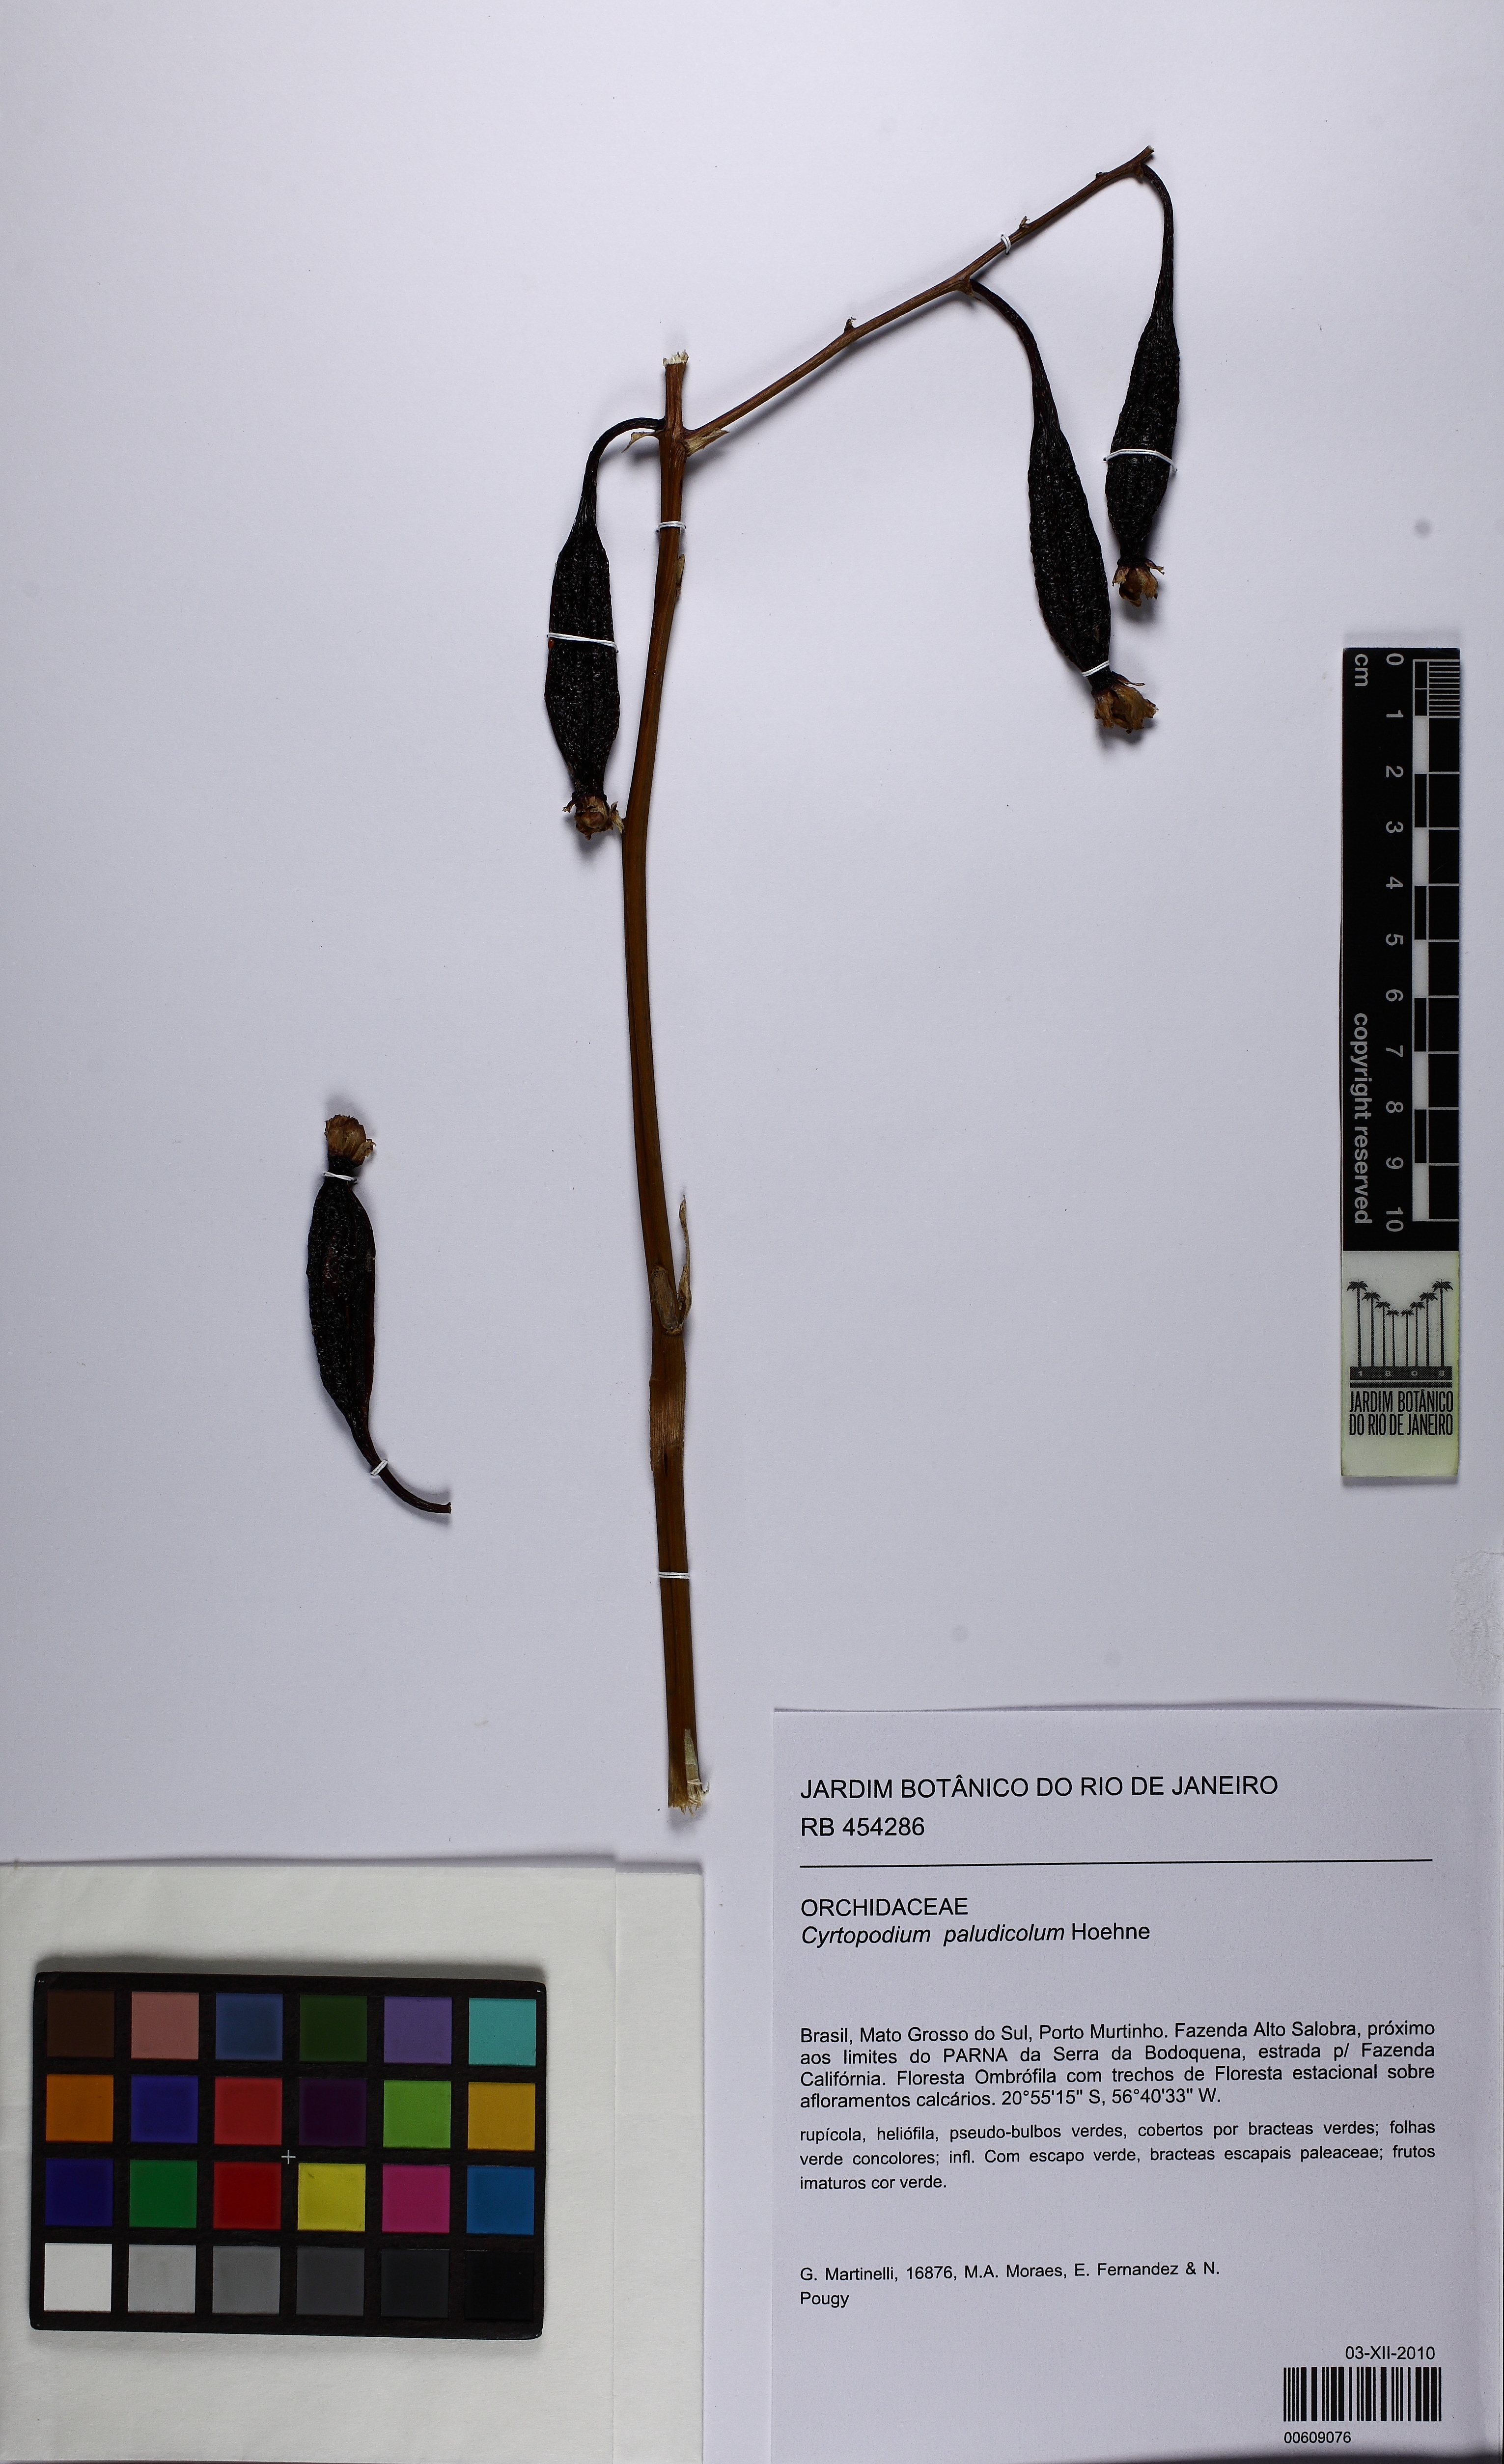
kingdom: Plantae
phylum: Tracheophyta
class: Liliopsida
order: Asparagales
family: Orchidaceae
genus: Cyrtopodium
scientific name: Cyrtopodium paludicola
